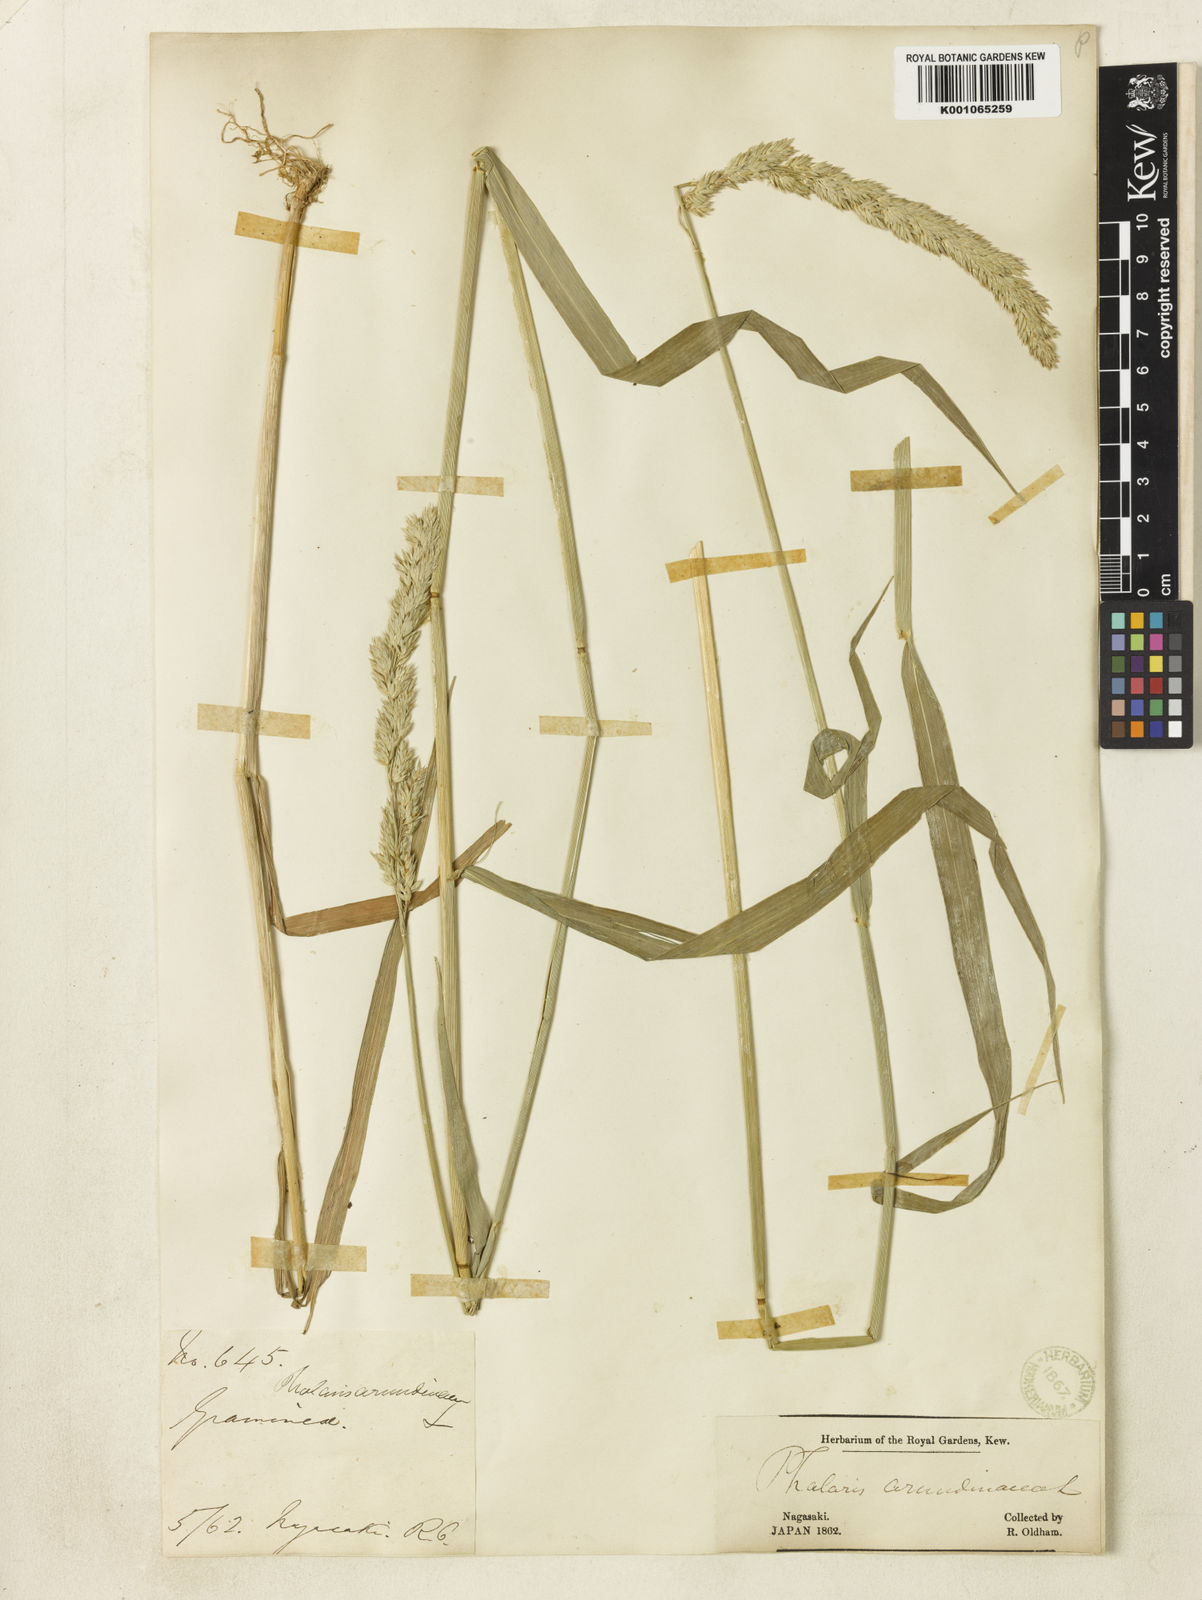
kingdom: Plantae
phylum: Tracheophyta
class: Liliopsida
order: Poales
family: Poaceae
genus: Phalaris
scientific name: Phalaris arundinacea
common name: Reed canary-grass
